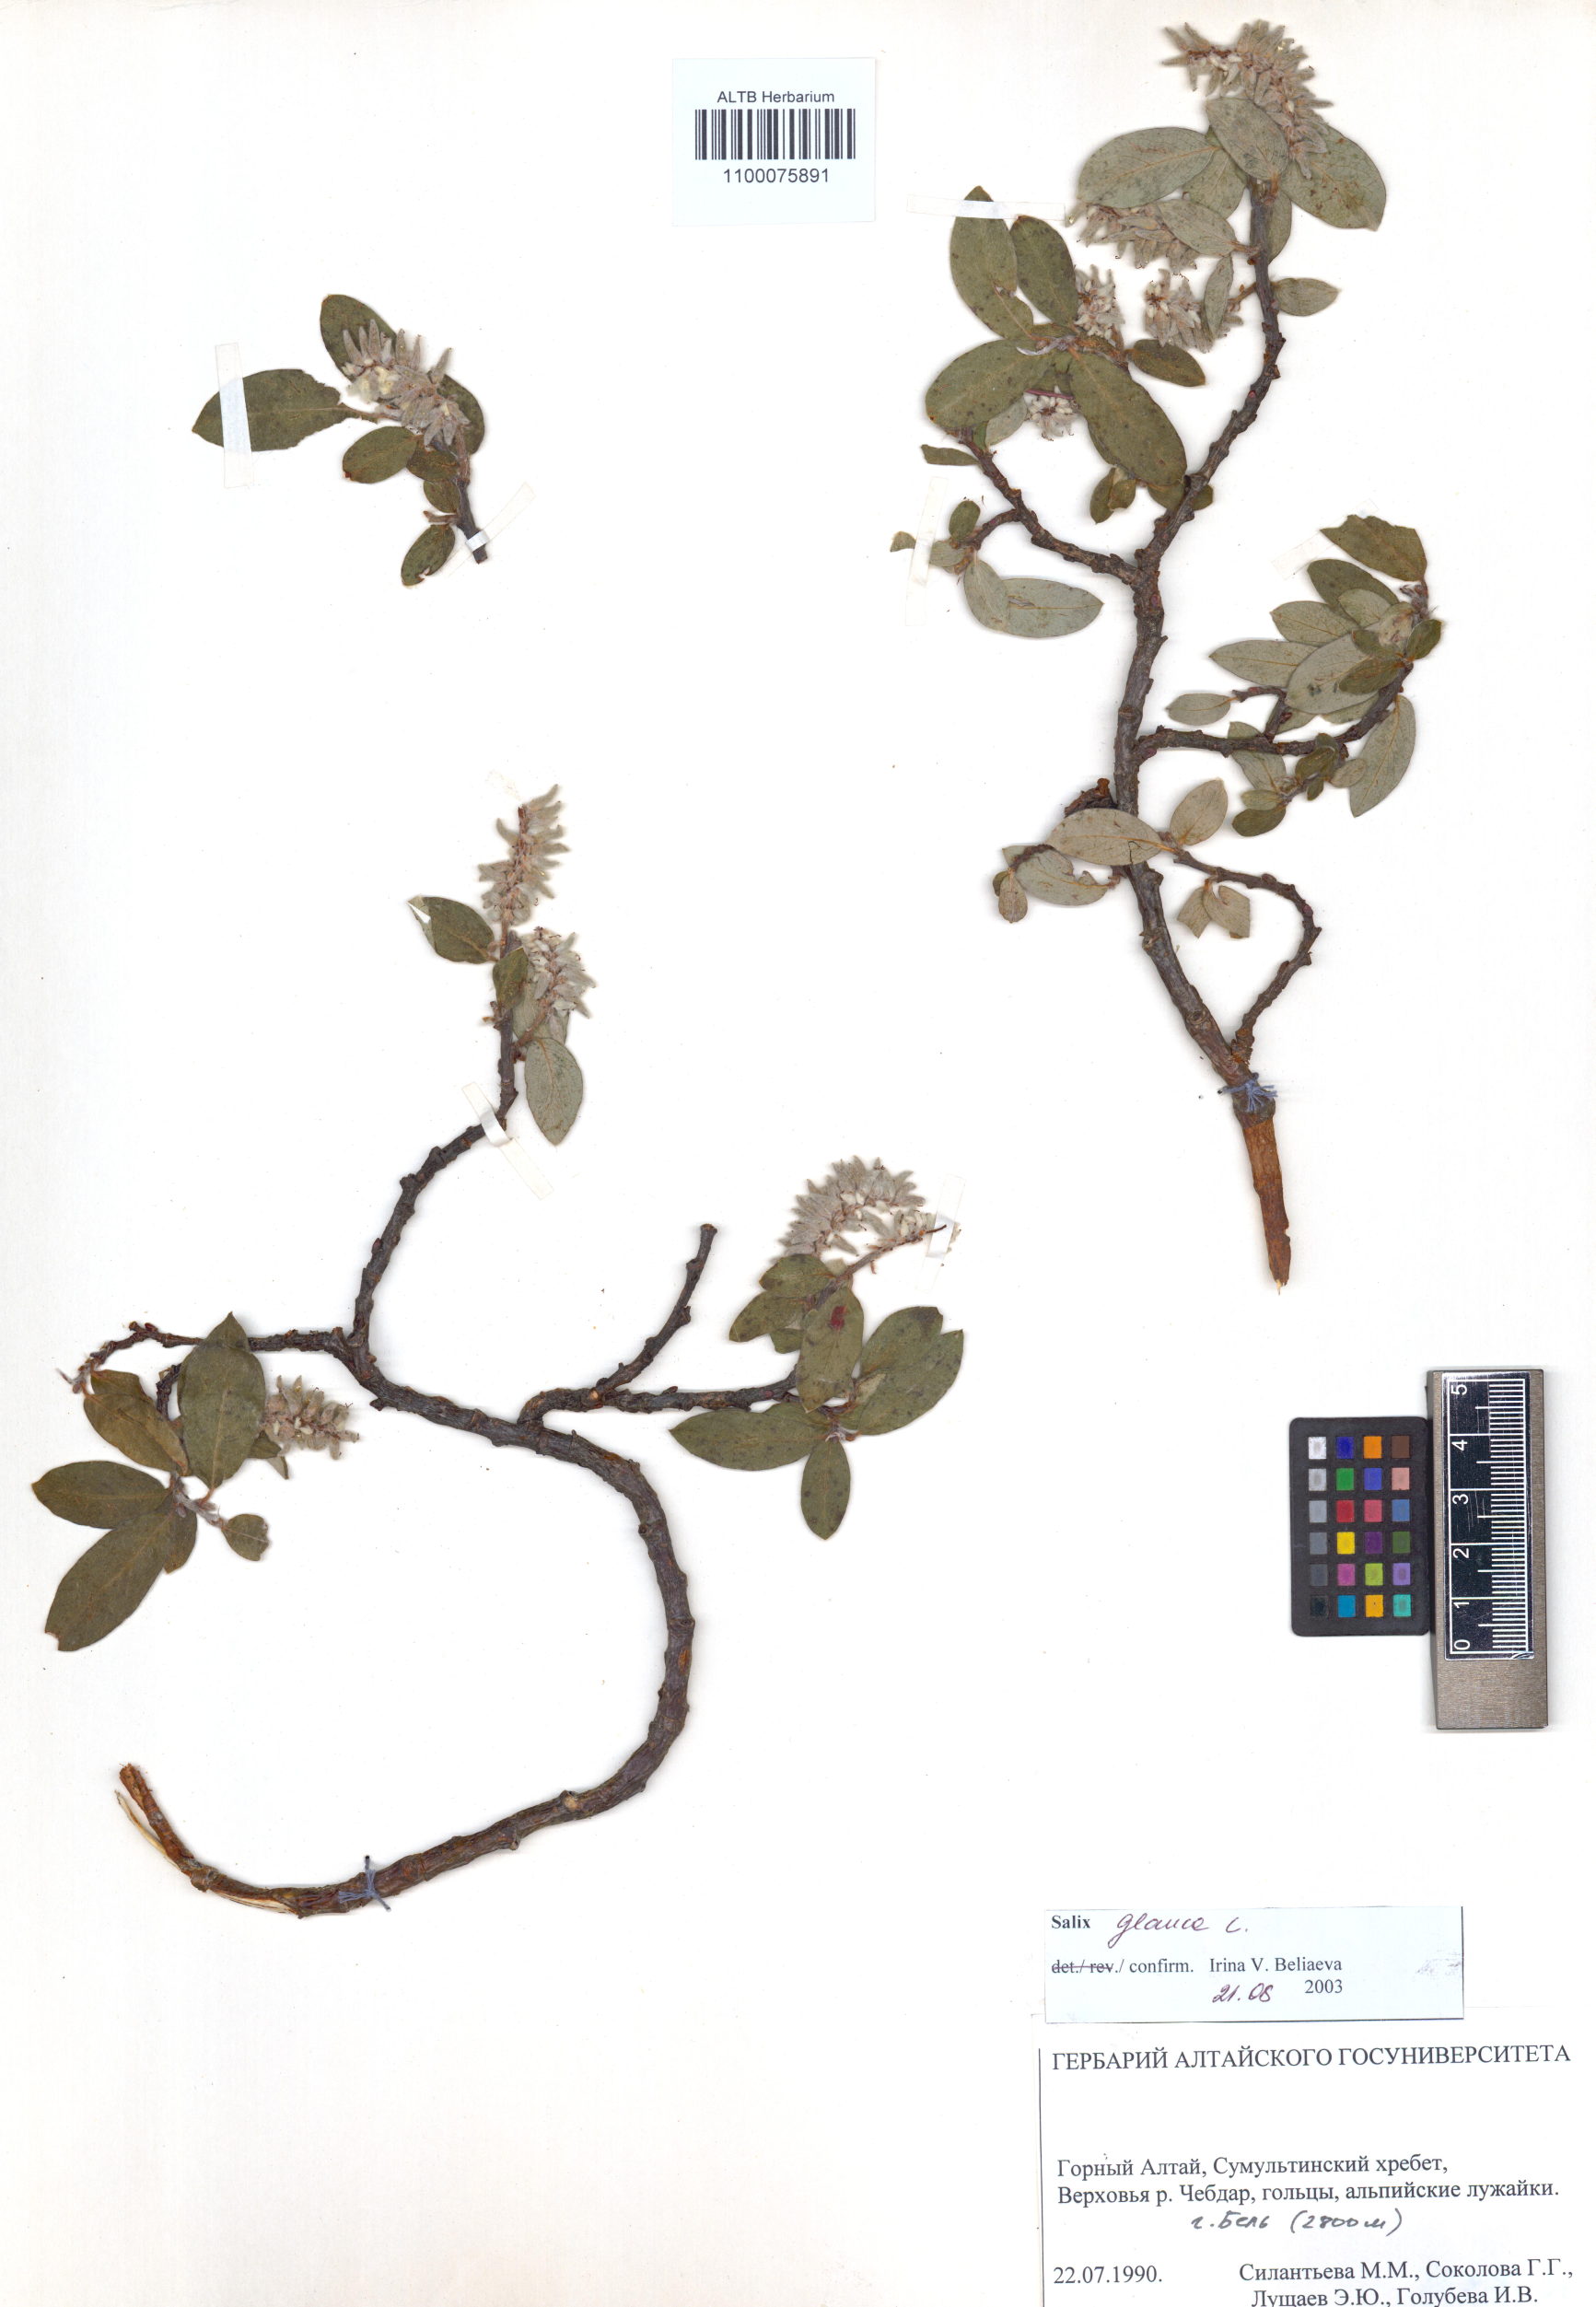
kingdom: Plantae
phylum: Tracheophyta
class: Magnoliopsida
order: Malpighiales
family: Salicaceae
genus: Salix
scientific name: Salix glauca
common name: Glaucous willow
